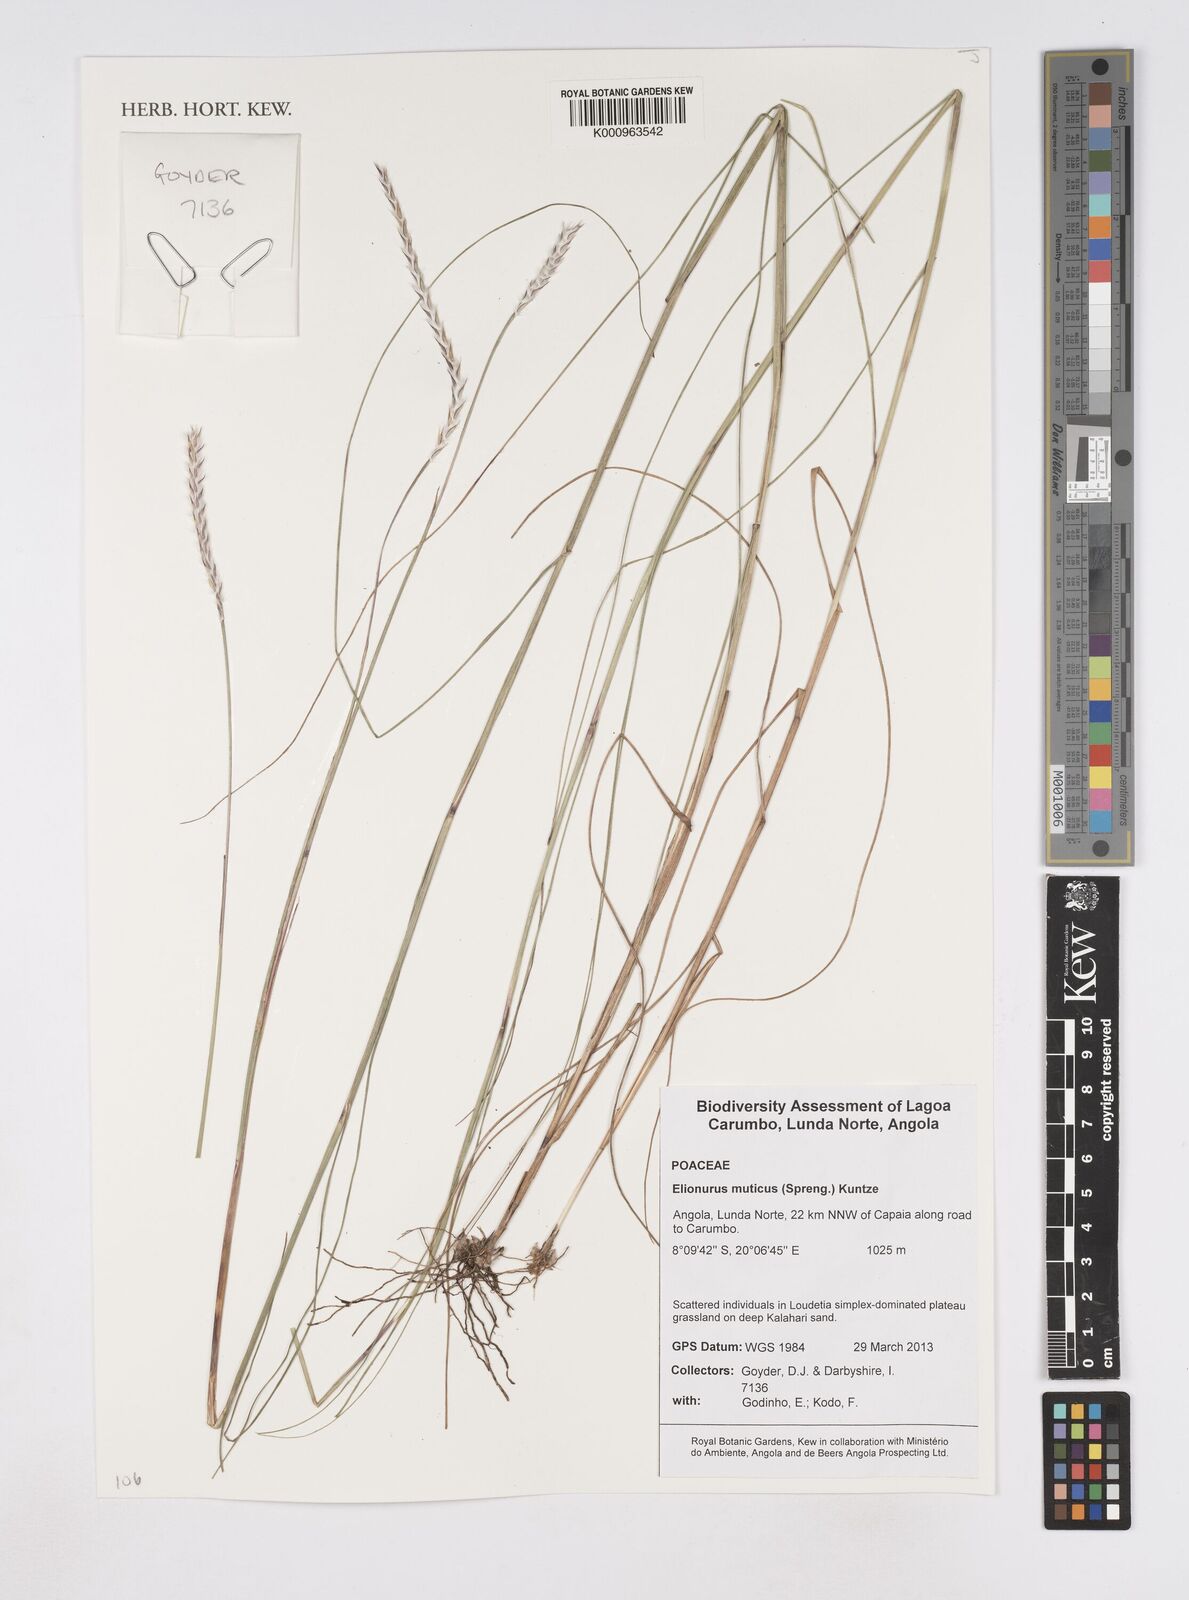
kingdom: Plantae
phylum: Tracheophyta
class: Liliopsida
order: Poales
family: Poaceae
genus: Elionurus
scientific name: Elionurus muticus
